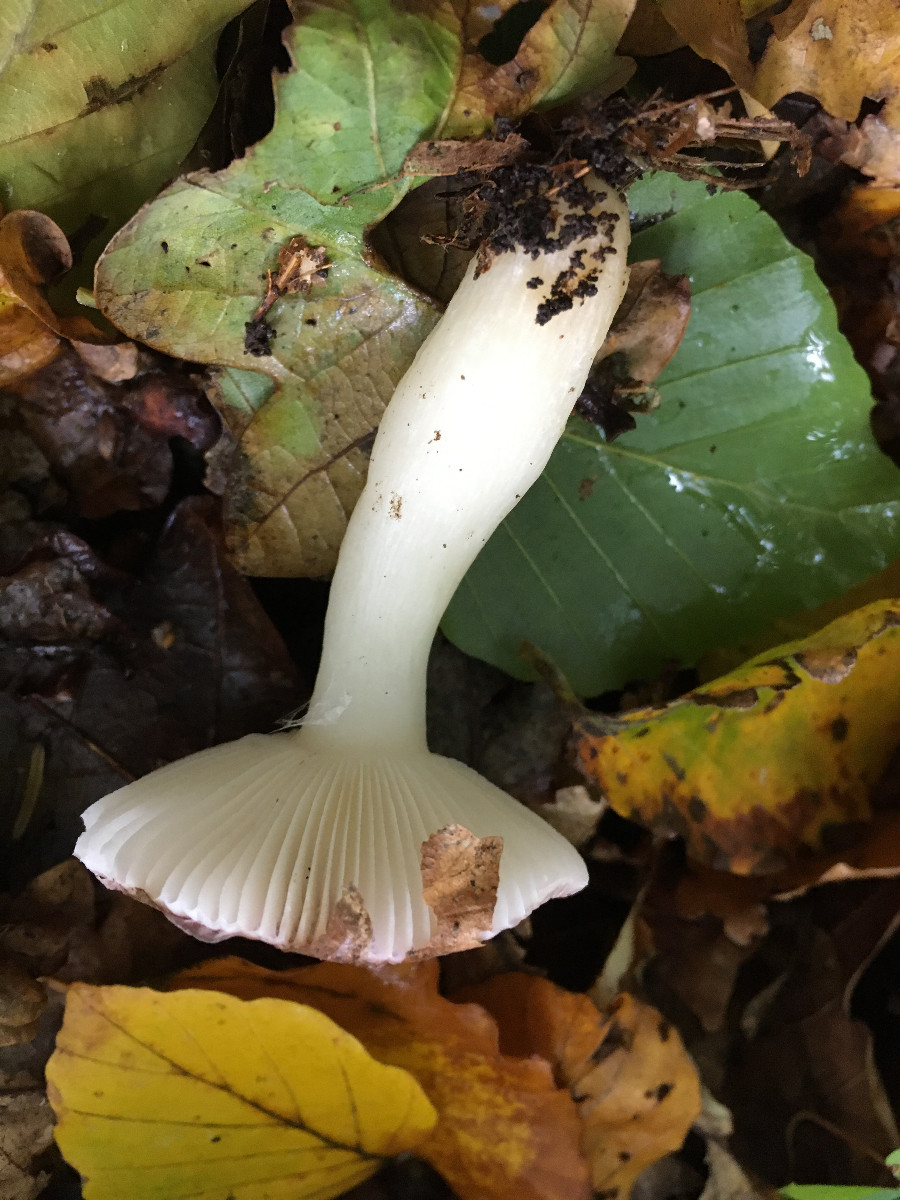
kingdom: Fungi
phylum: Basidiomycota
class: Agaricomycetes
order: Russulales
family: Russulaceae
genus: Russula
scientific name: Russula
